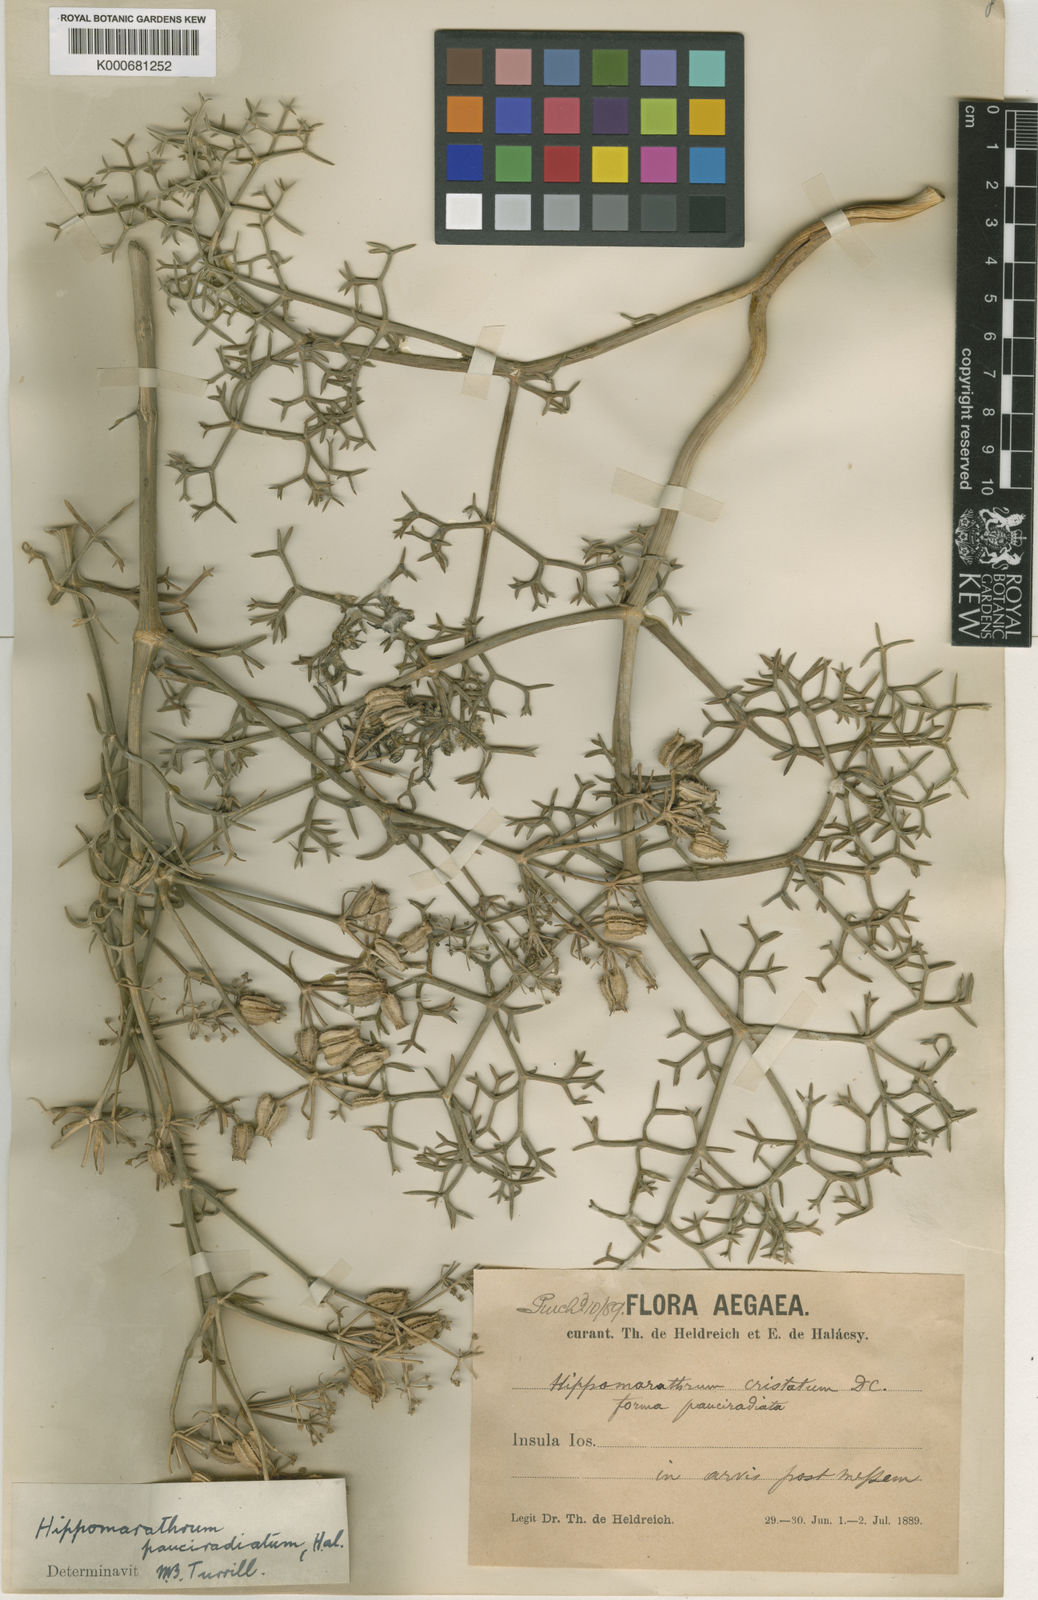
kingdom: Plantae
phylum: Tracheophyta
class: Magnoliopsida
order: Apiales
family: Apiaceae
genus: Cachrys
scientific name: Cachrys cristata
